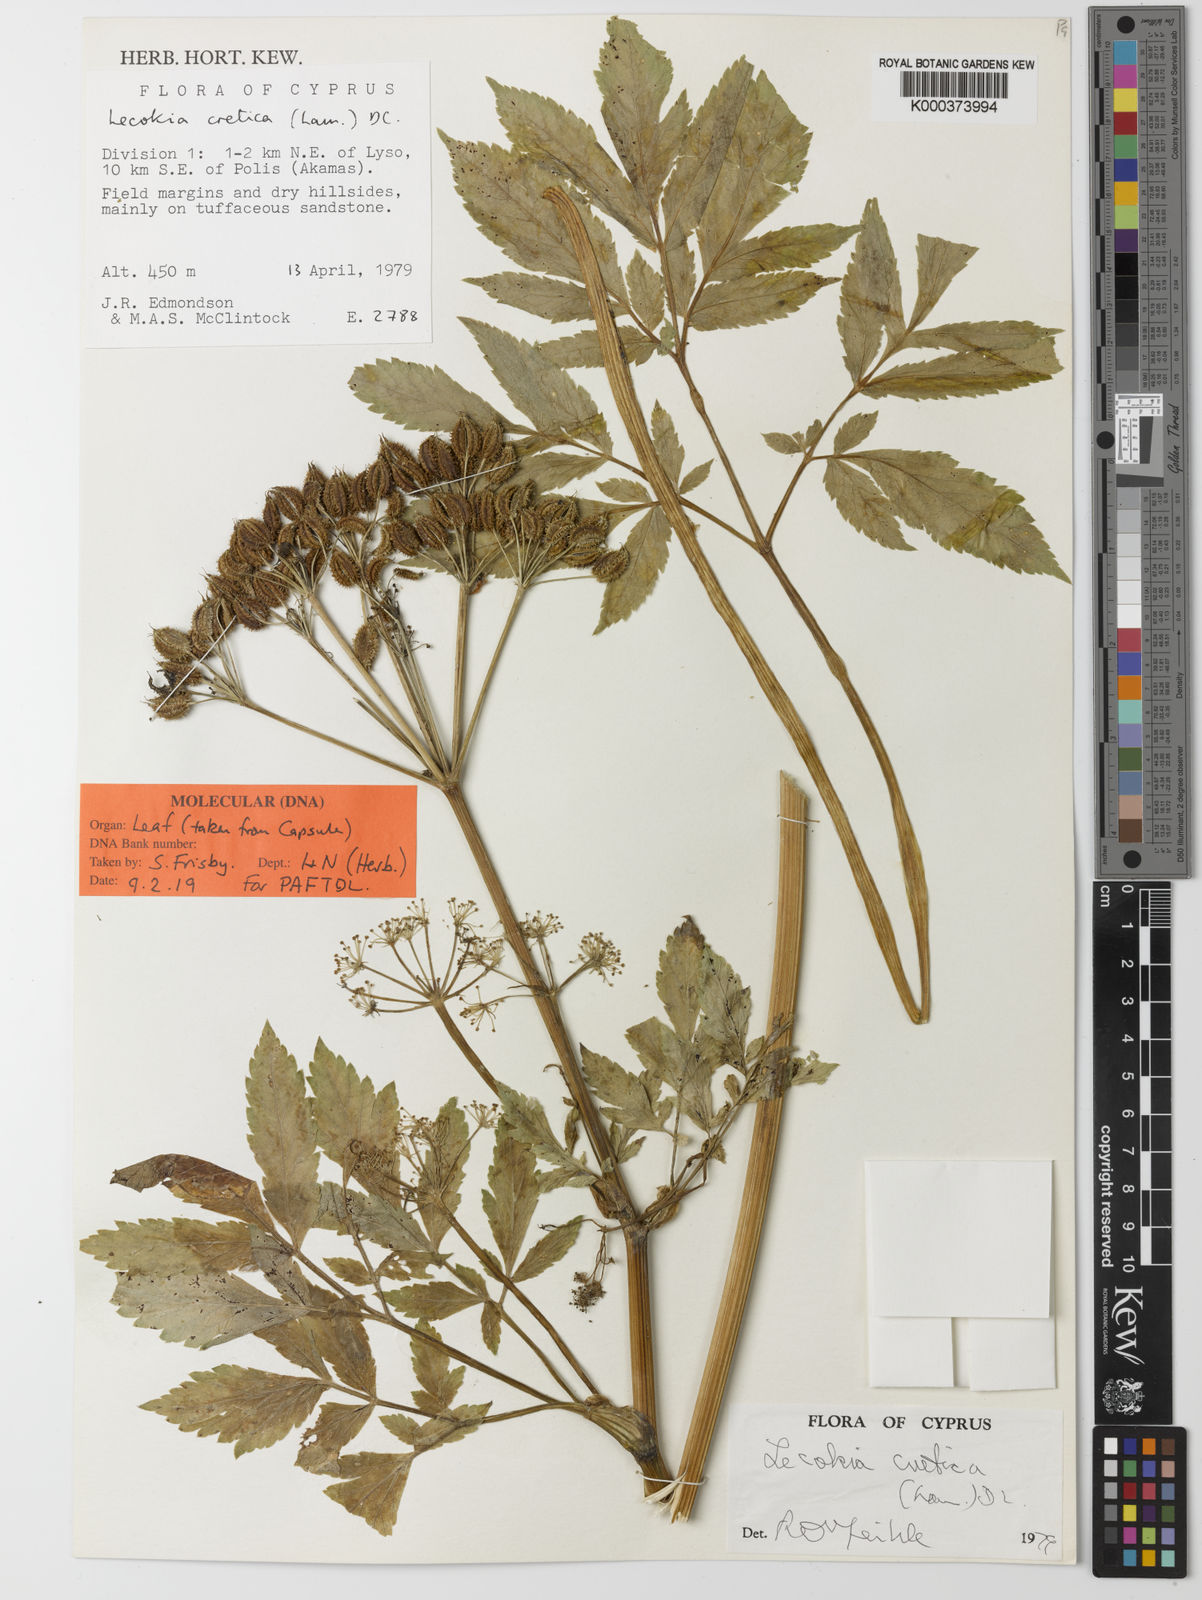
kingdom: Plantae
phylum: Tracheophyta
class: Magnoliopsida
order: Apiales
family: Apiaceae
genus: Lecokia
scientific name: Lecokia cretica
